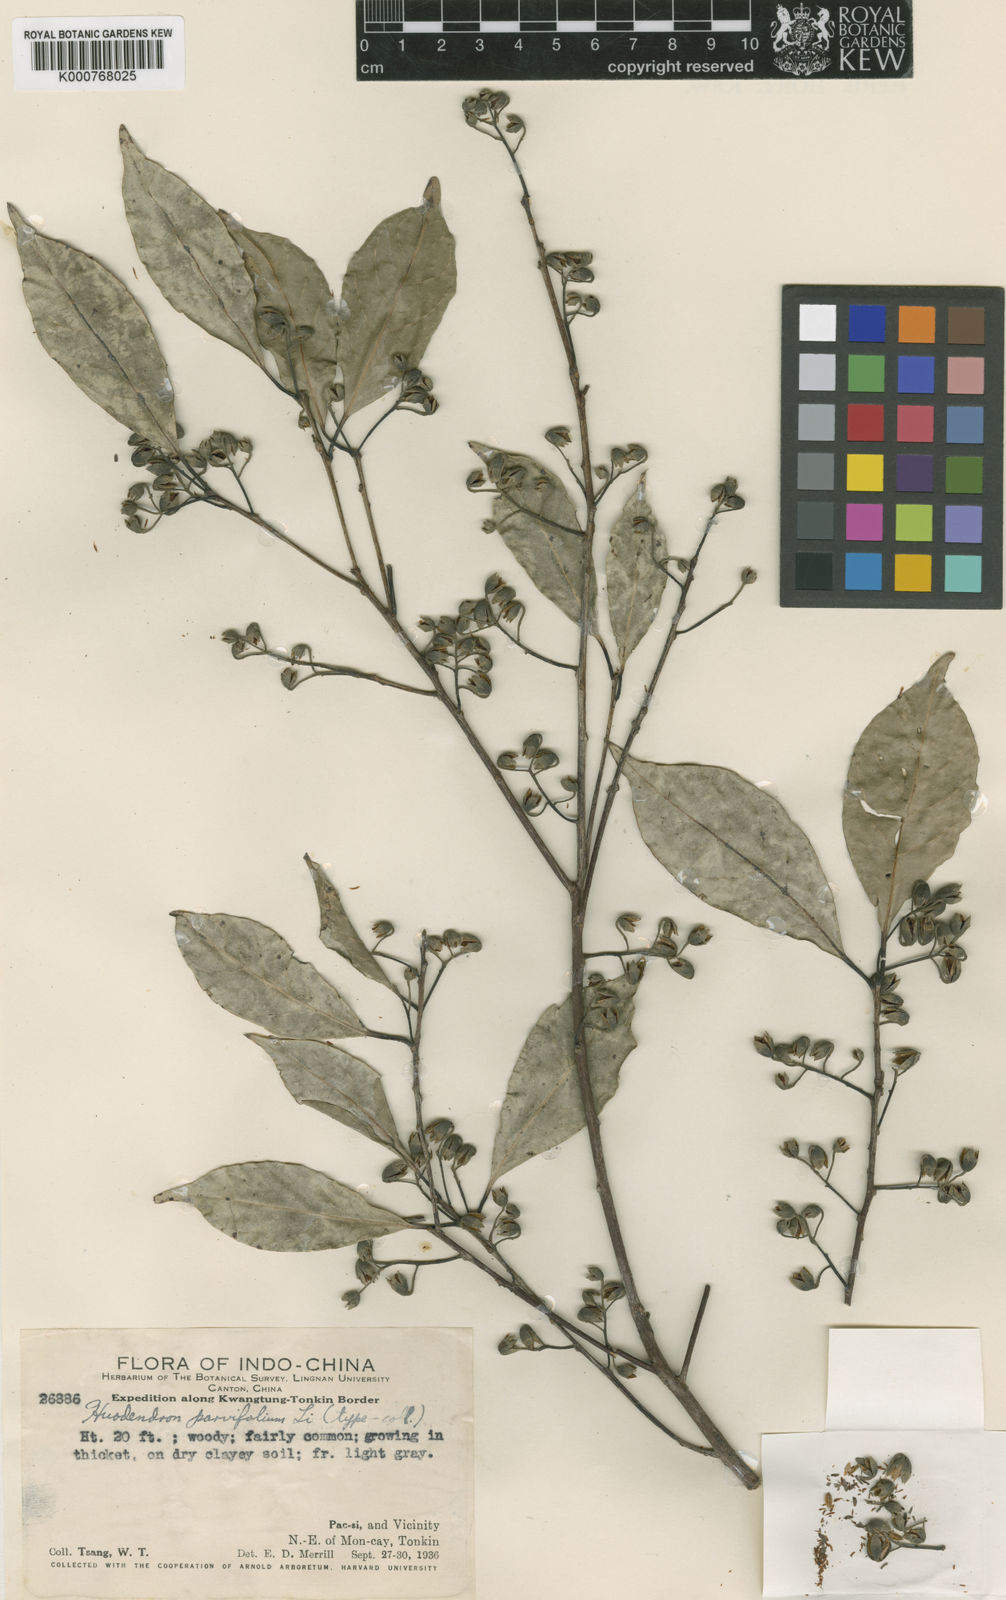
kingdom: Plantae
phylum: Tracheophyta
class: Magnoliopsida
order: Ericales
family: Styracaceae
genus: Huodendron
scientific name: Huodendron biaristatum
